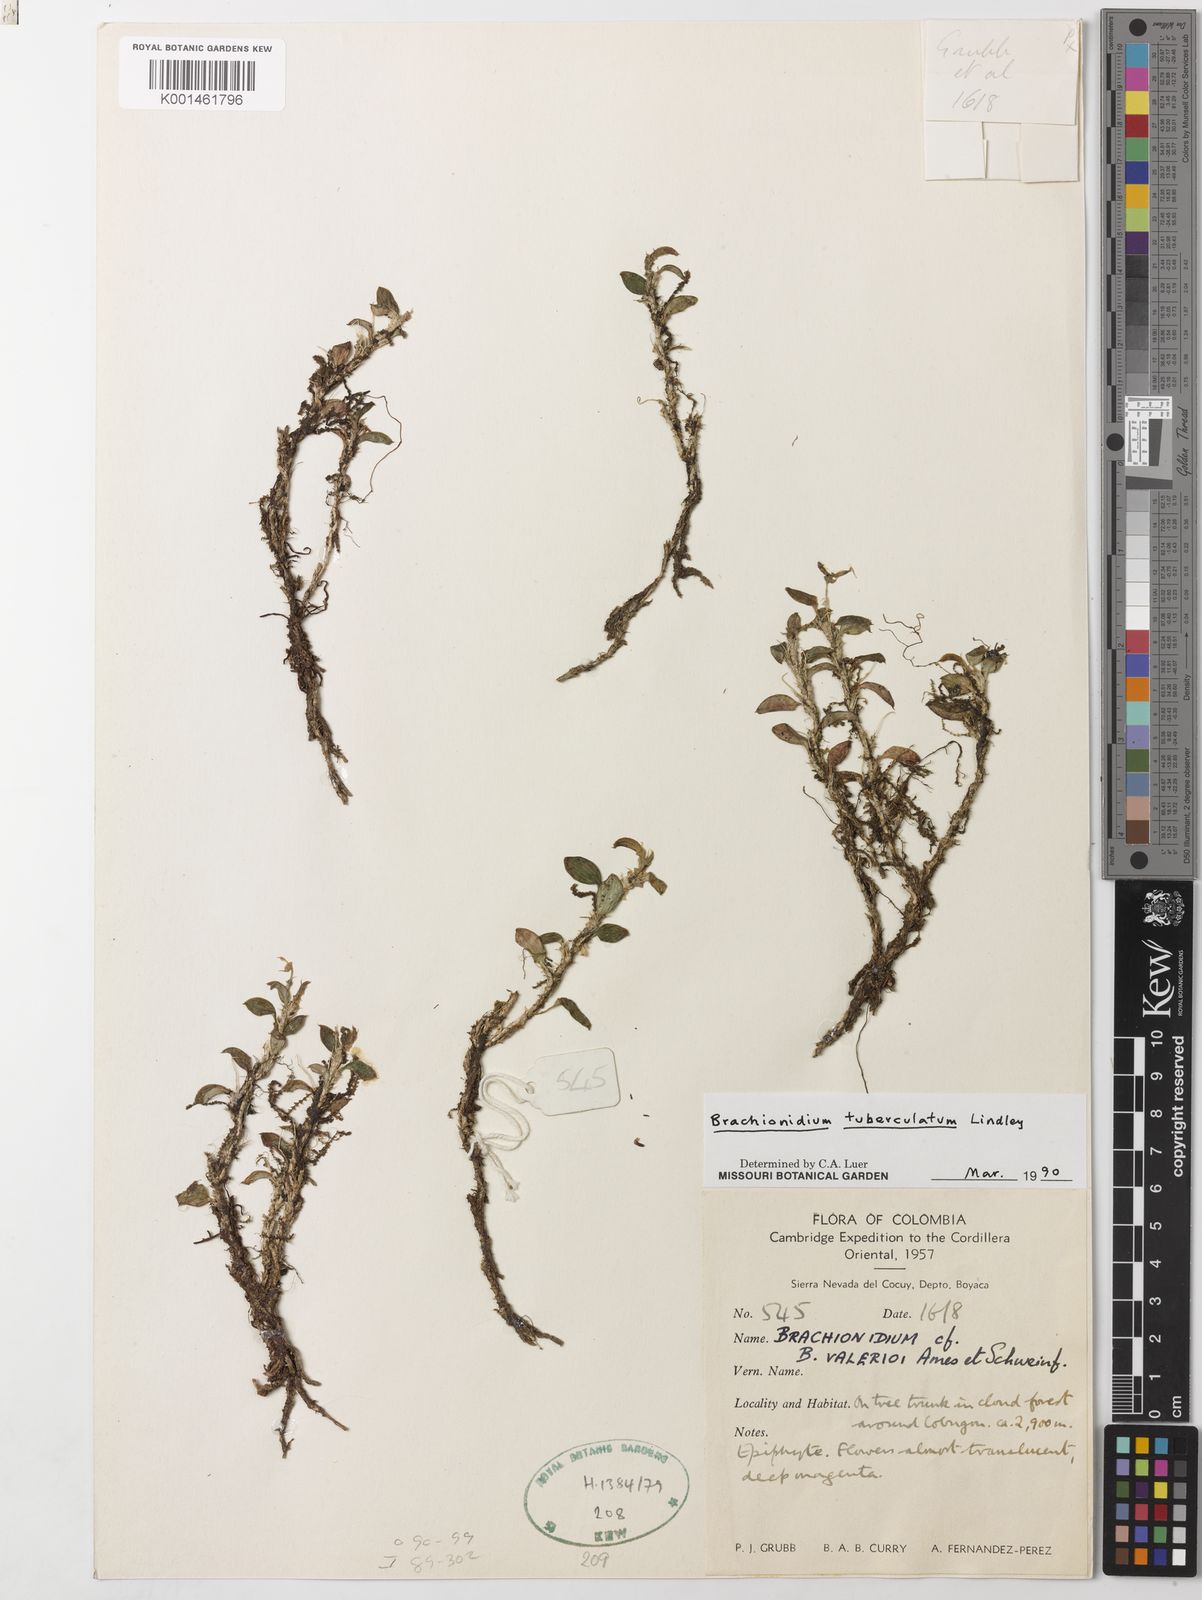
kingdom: Plantae
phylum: Tracheophyta
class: Liliopsida
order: Asparagales
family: Orchidaceae
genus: Brachionidium
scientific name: Brachionidium tuberculatum
